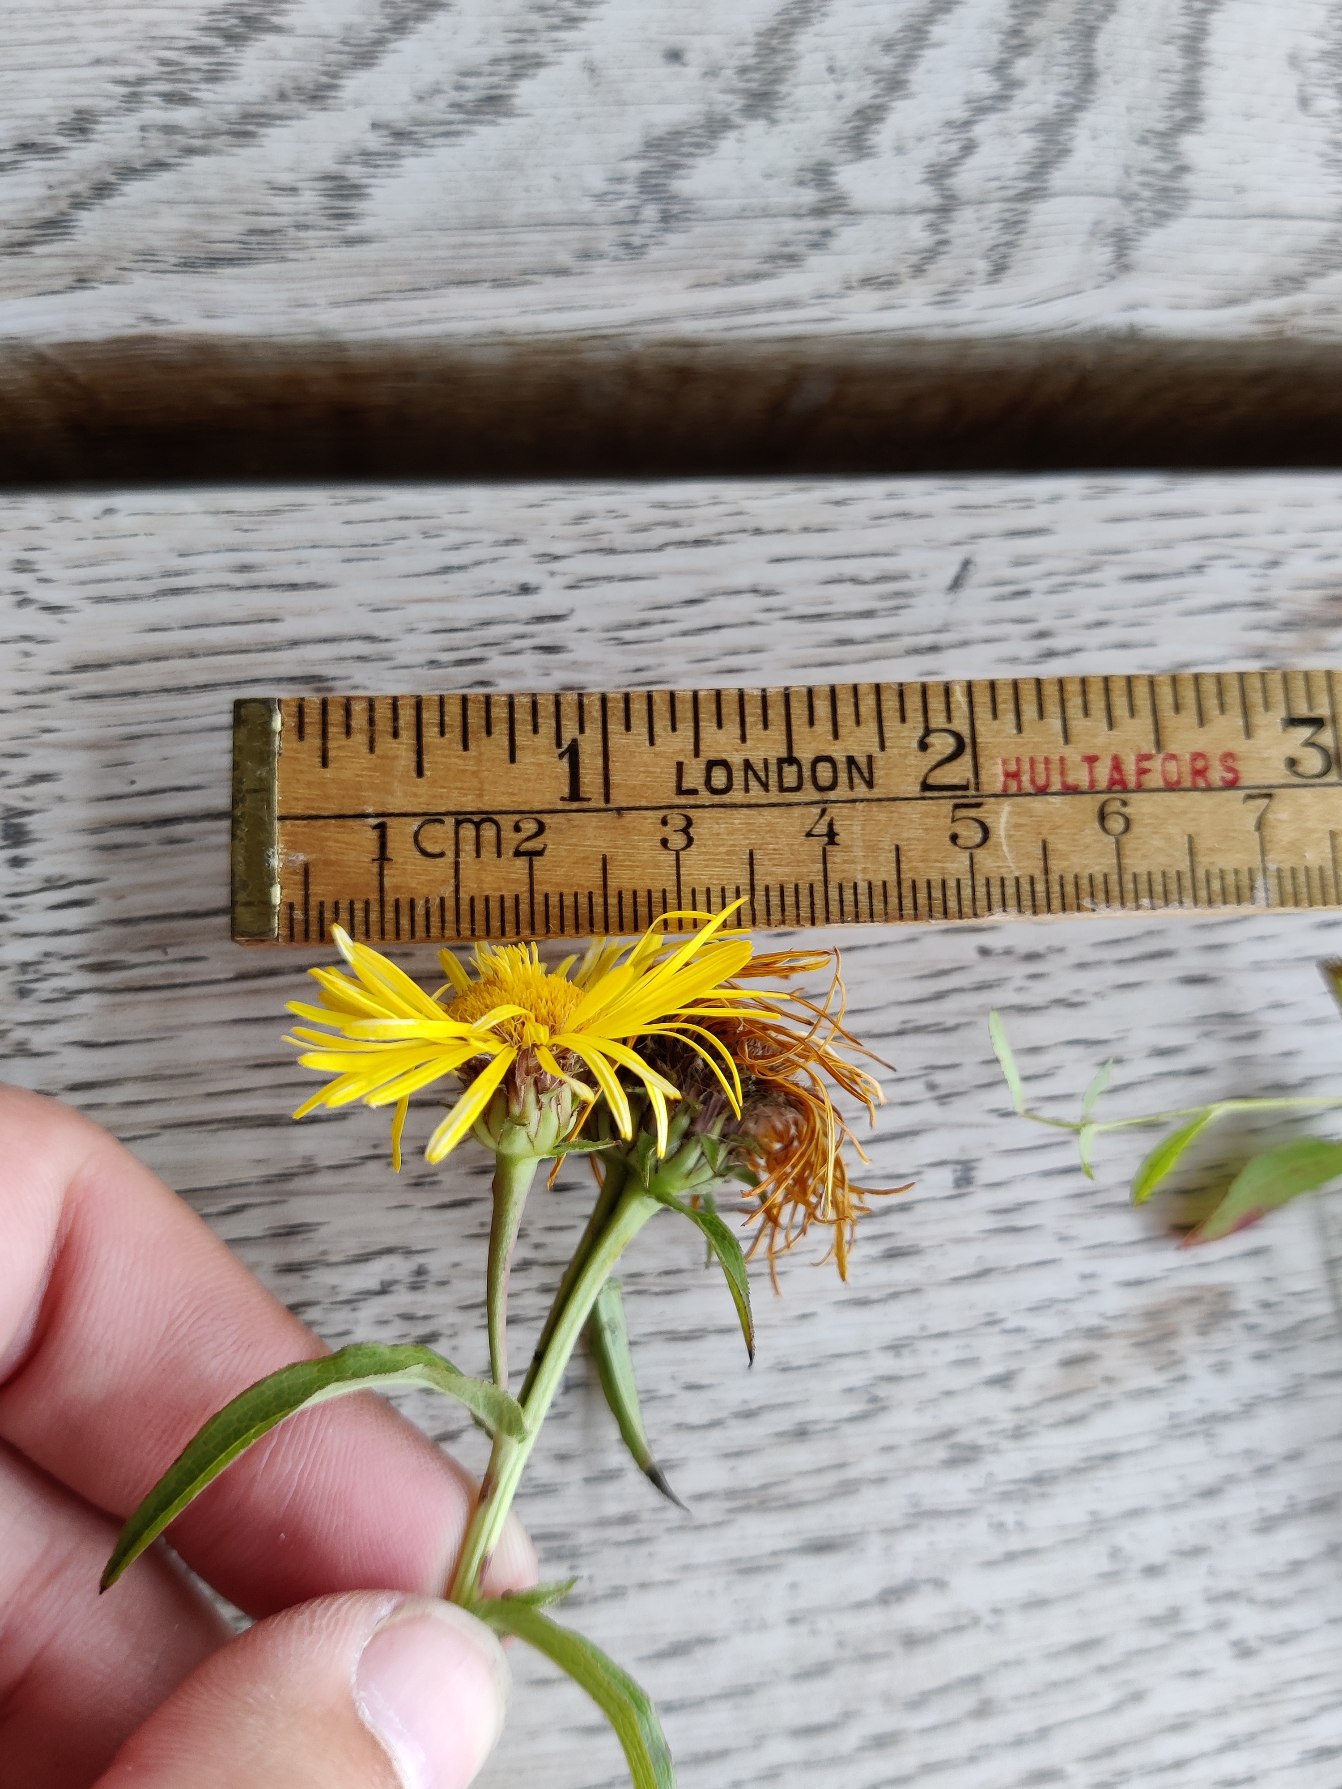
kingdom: Plantae
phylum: Tracheophyta
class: Magnoliopsida
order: Asterales
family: Asteraceae
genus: Pentanema
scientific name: Pentanema salicinum
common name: Pile-alant
